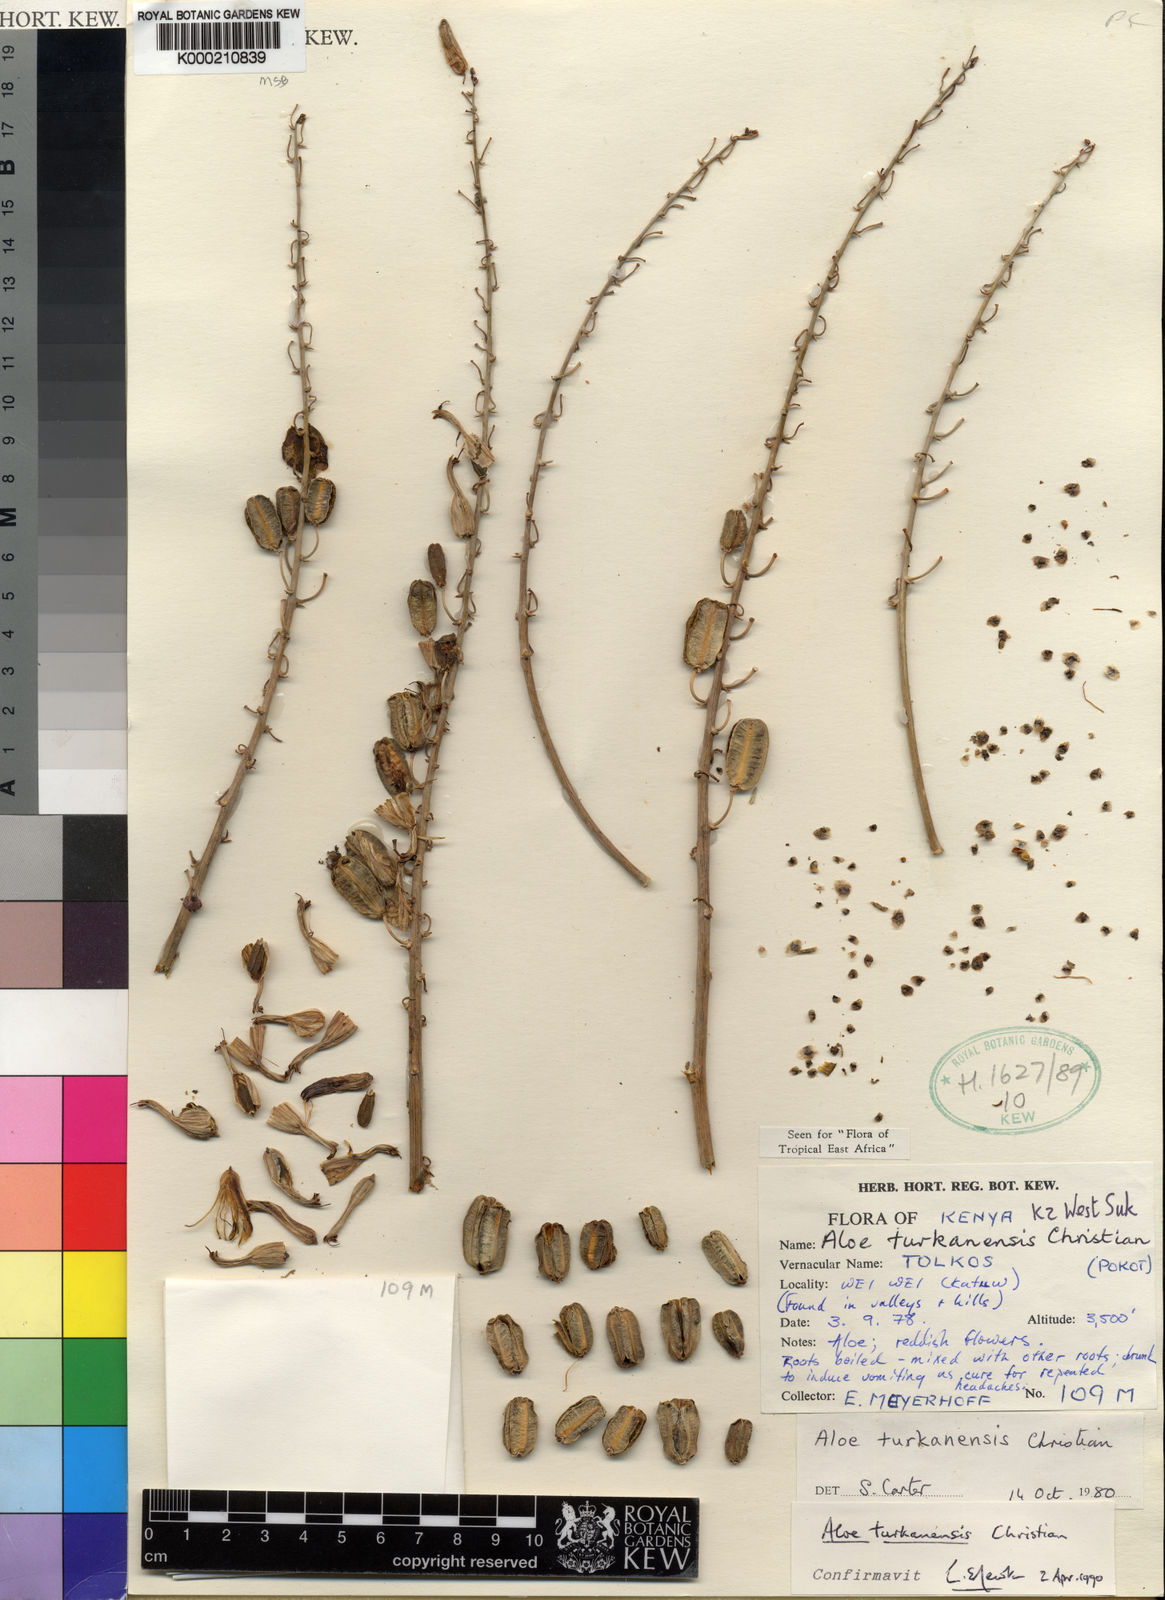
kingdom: Plantae
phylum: Tracheophyta
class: Liliopsida
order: Asparagales
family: Asphodelaceae
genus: Aloe
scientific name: Aloe turkanensis
